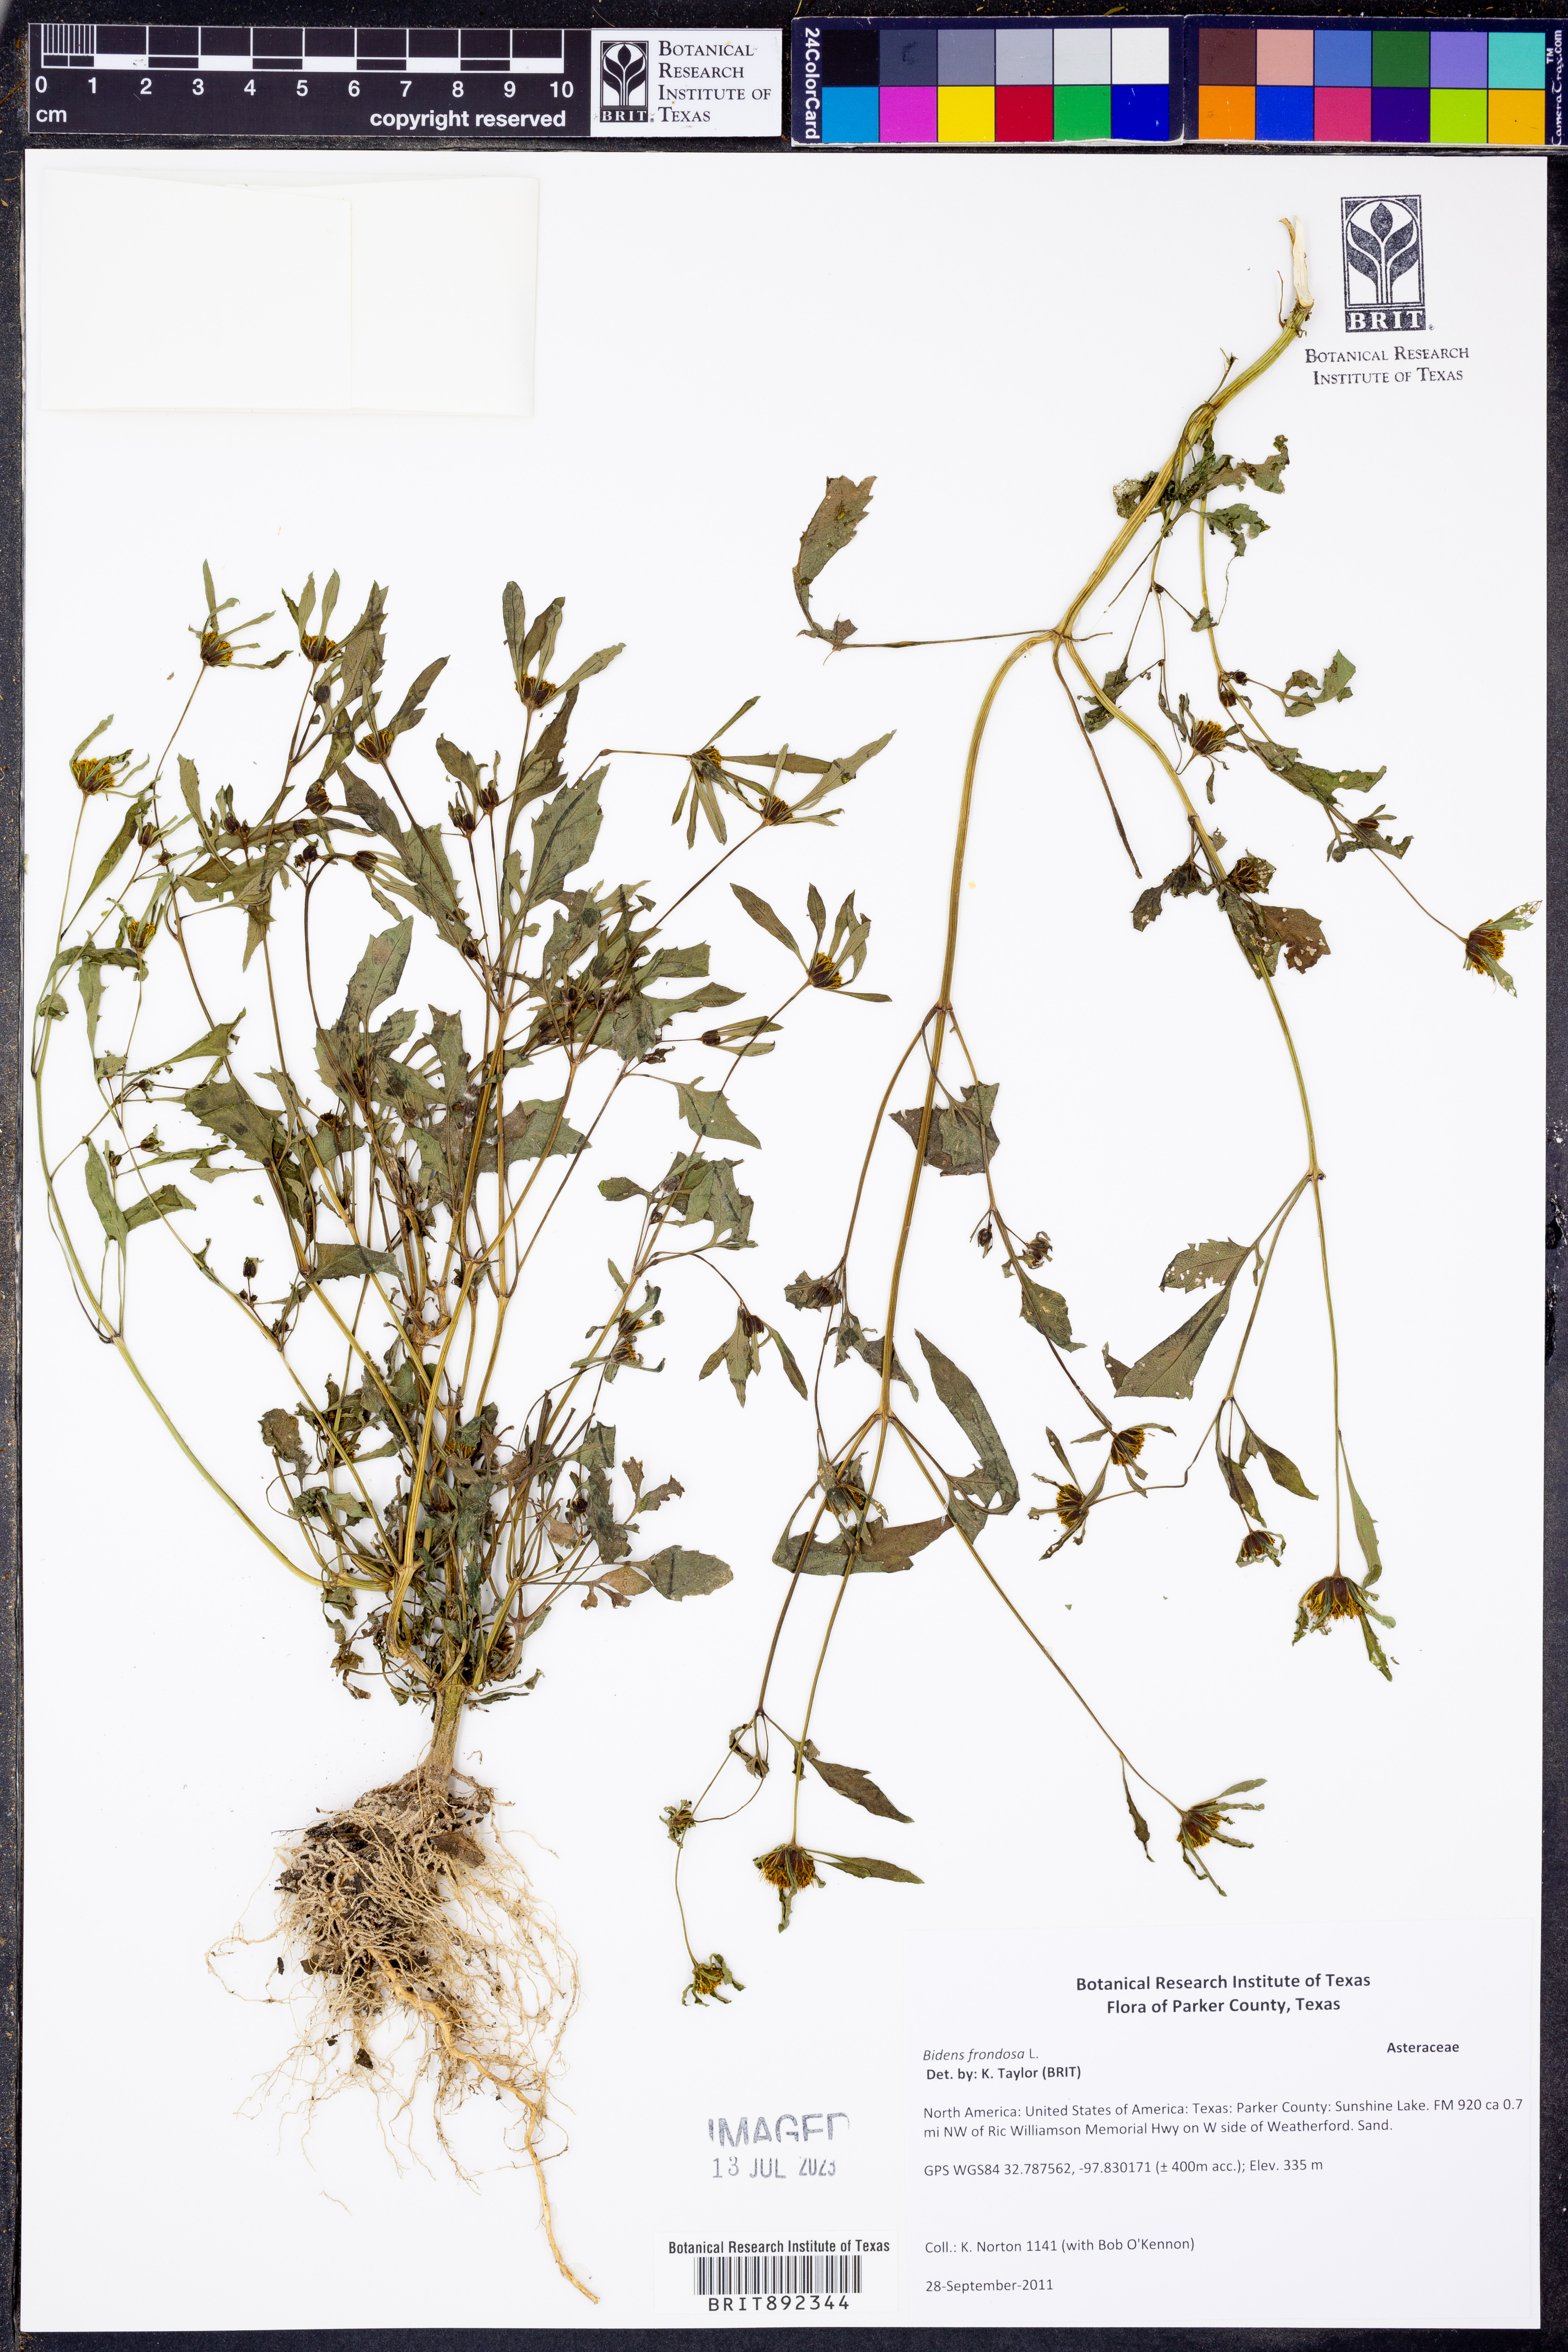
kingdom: Plantae
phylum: Tracheophyta
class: Magnoliopsida
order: Asterales
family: Asteraceae
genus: Bidens
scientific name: Bidens frondosa
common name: Beggarticks
